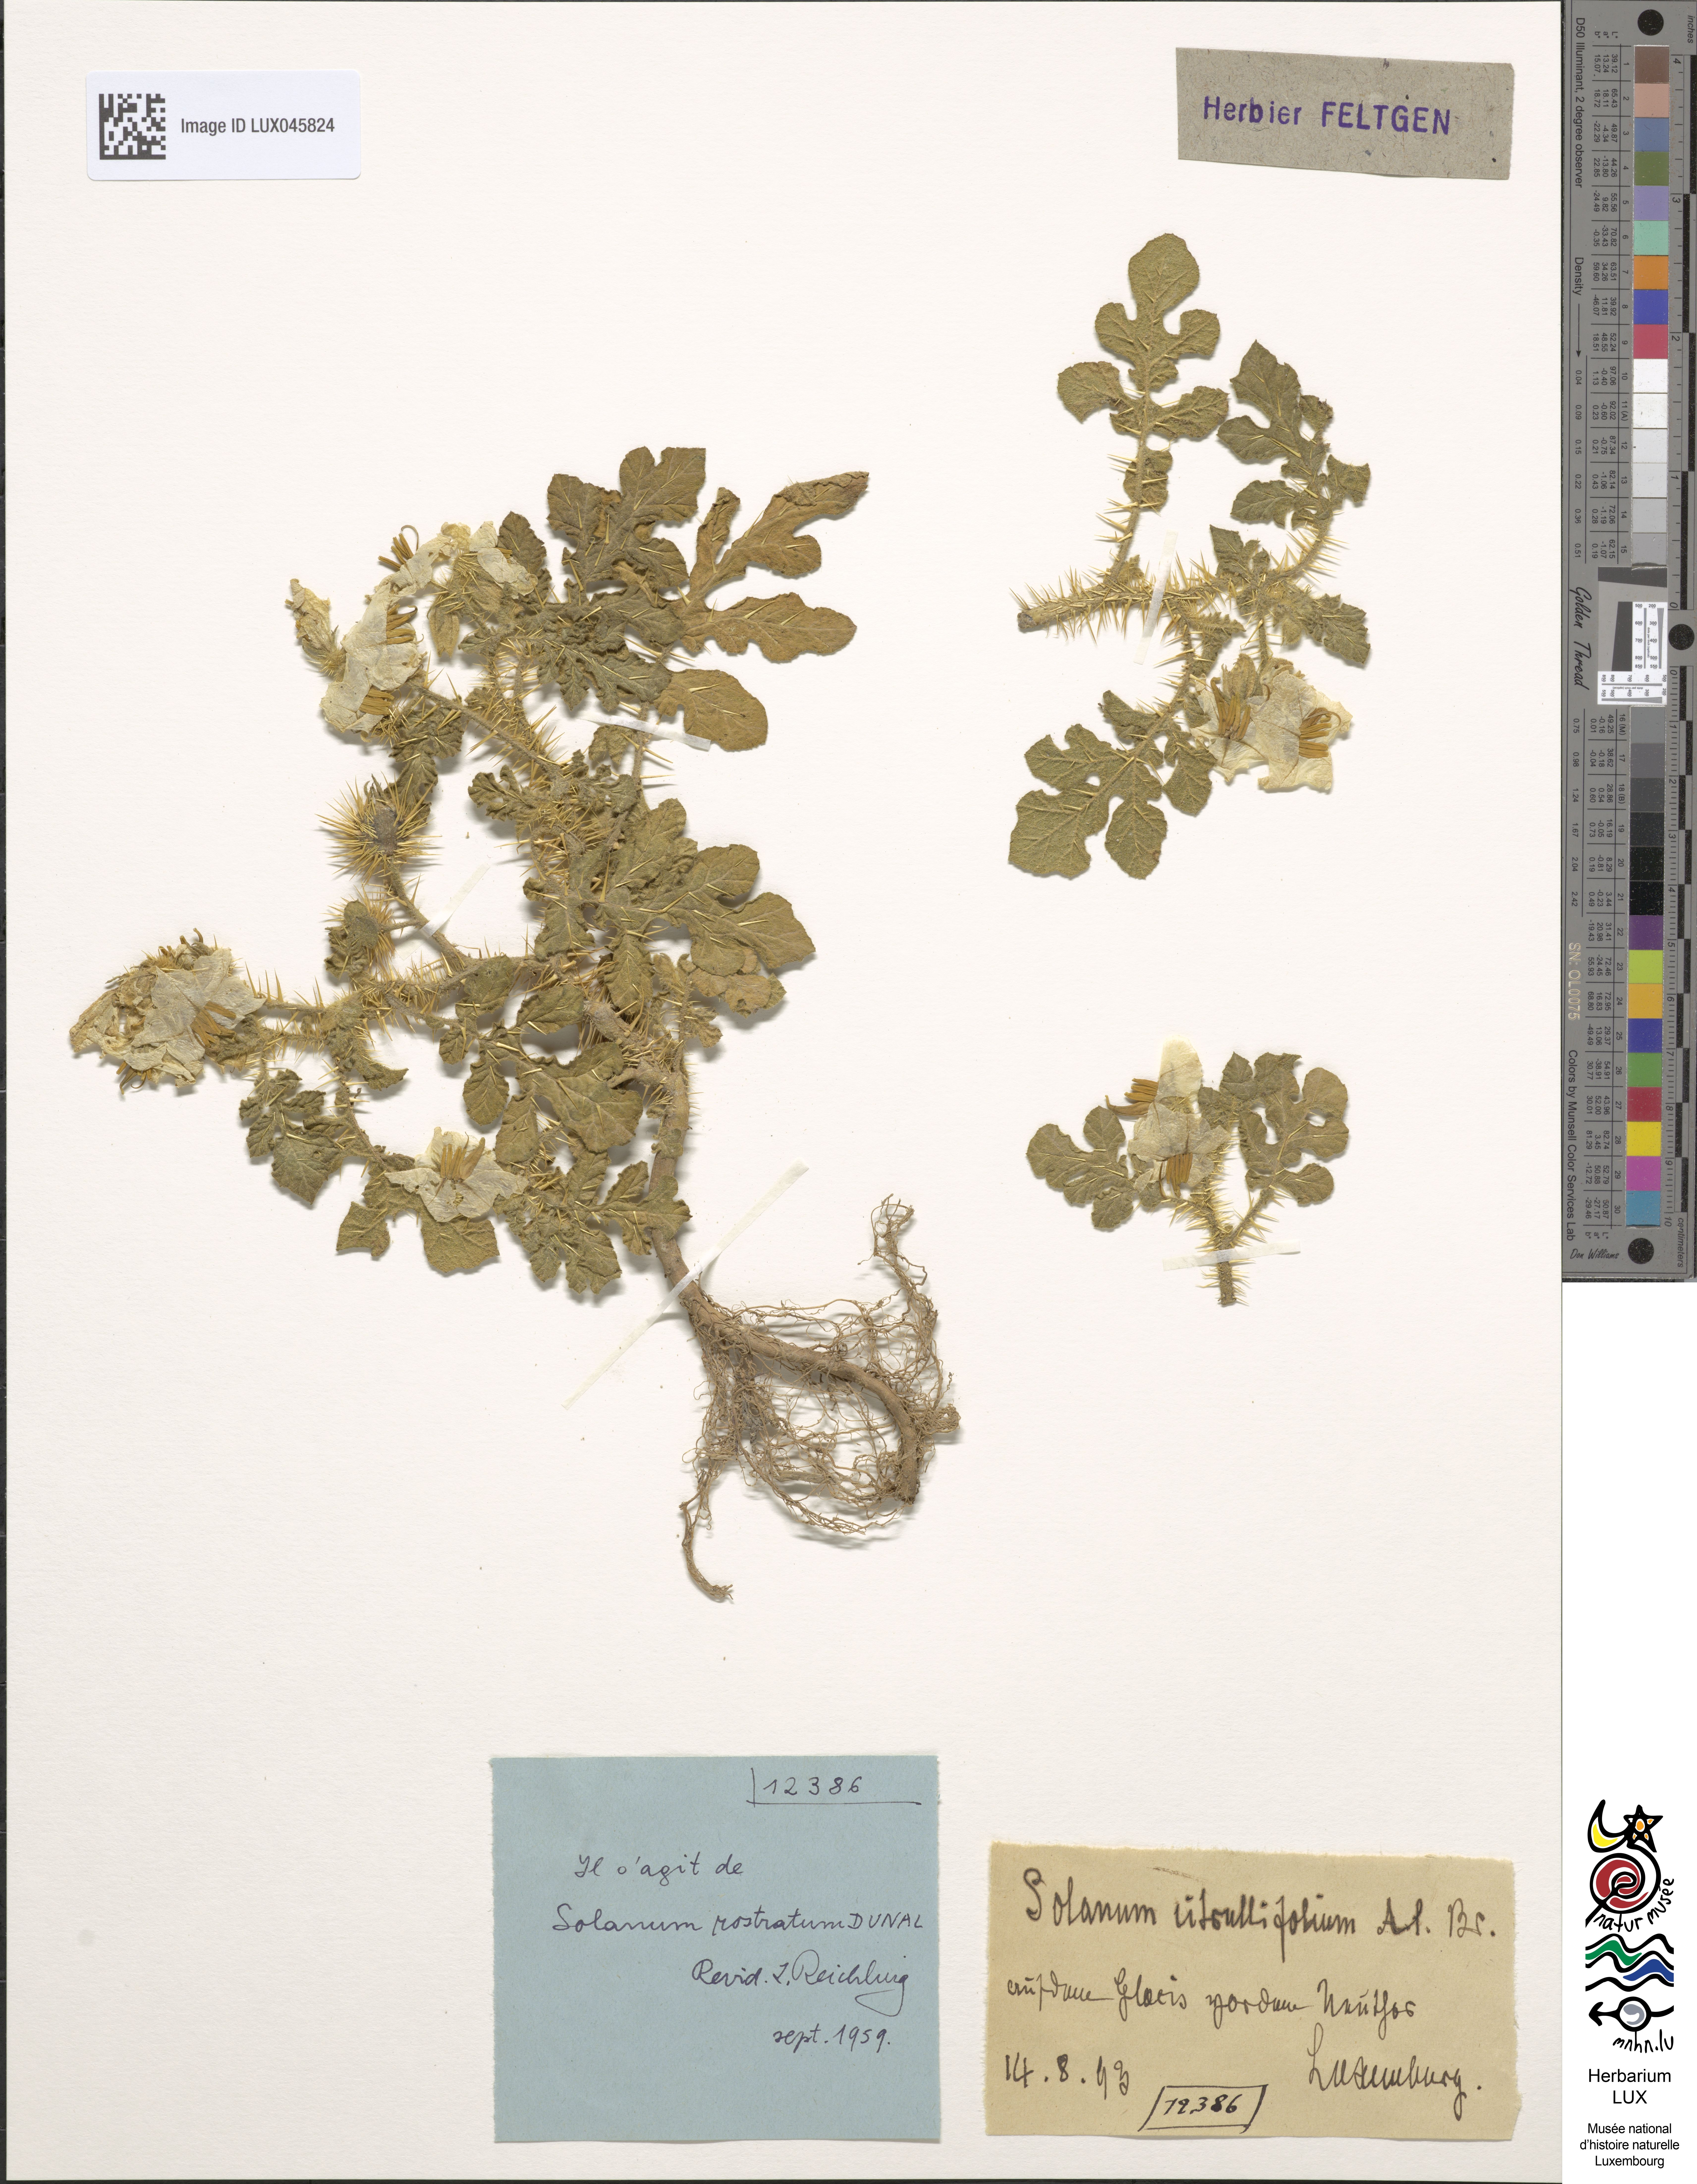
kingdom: Plantae
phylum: Tracheophyta
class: Magnoliopsida
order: Solanales
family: Solanaceae
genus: Solanum
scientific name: Solanum angustifolium
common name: Buffalobur nightshade
